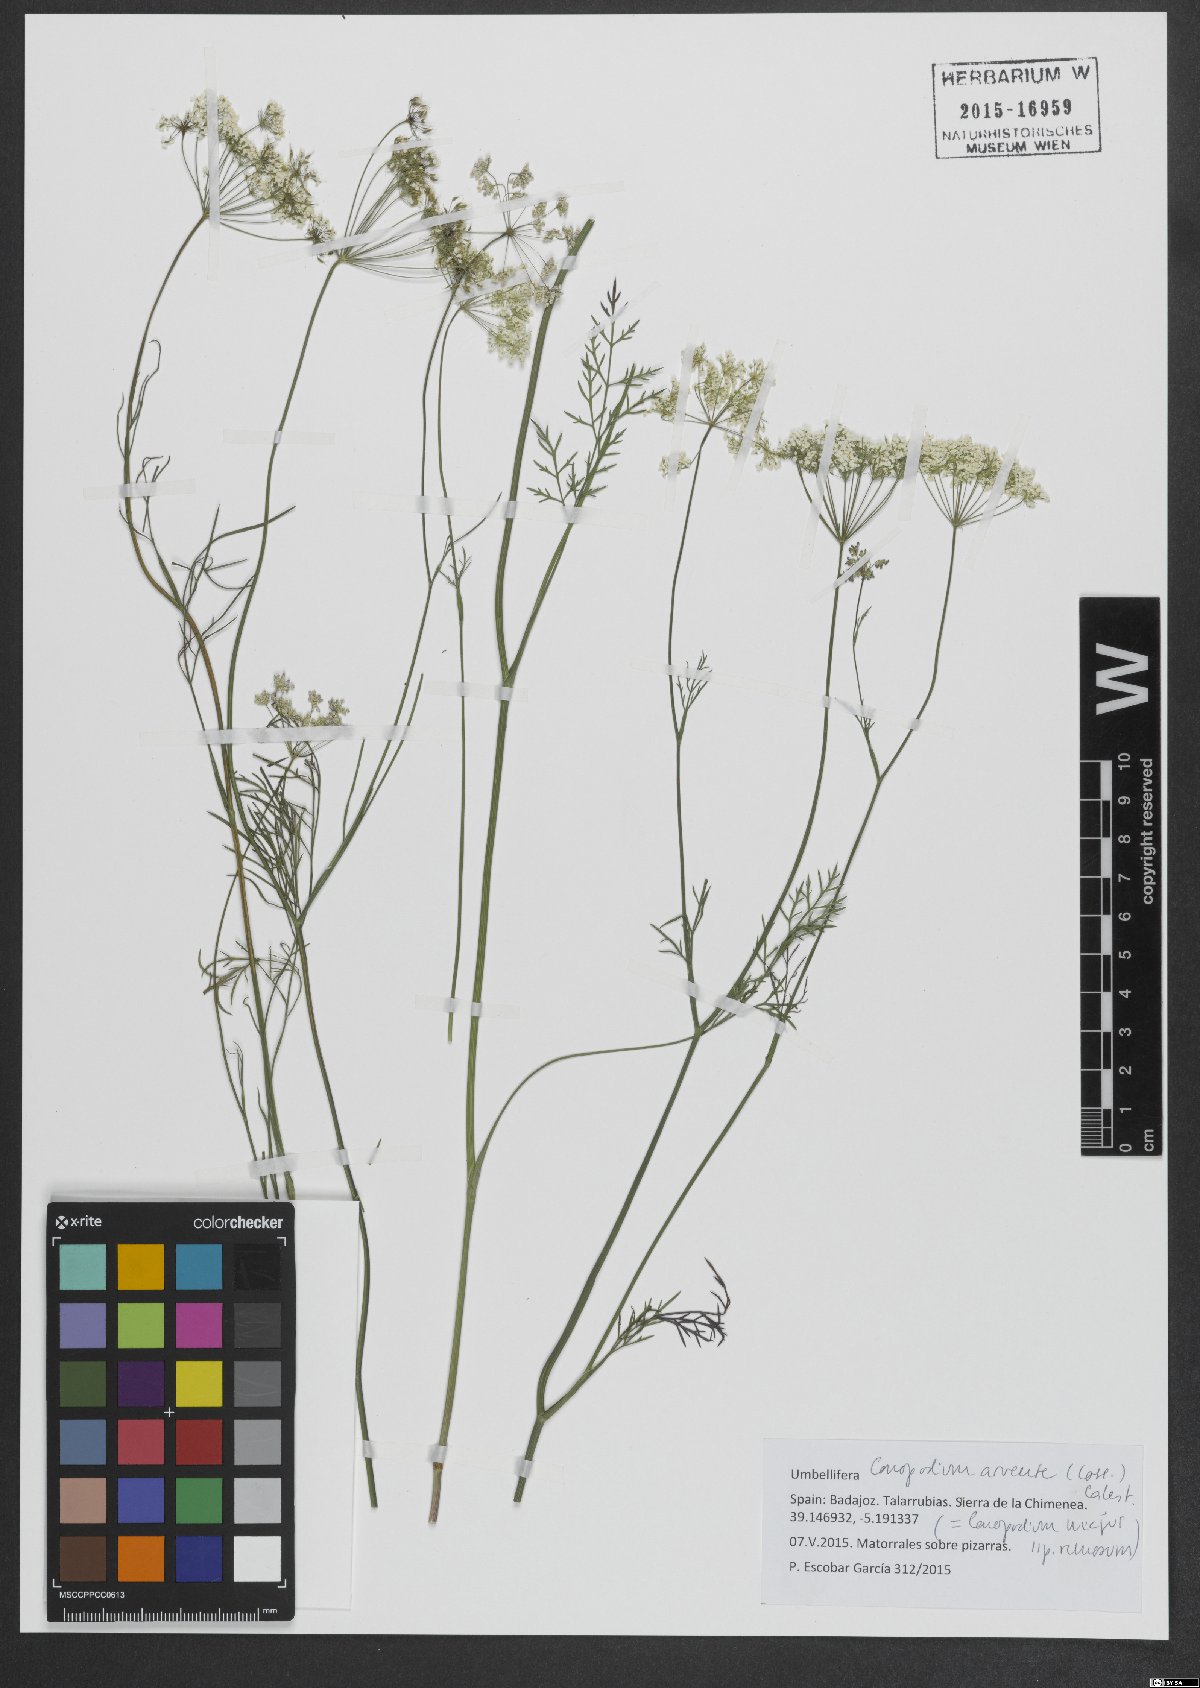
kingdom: Plantae
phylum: Tracheophyta
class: Magnoliopsida
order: Apiales
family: Apiaceae
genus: Conopodium
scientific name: Conopodium arvense
